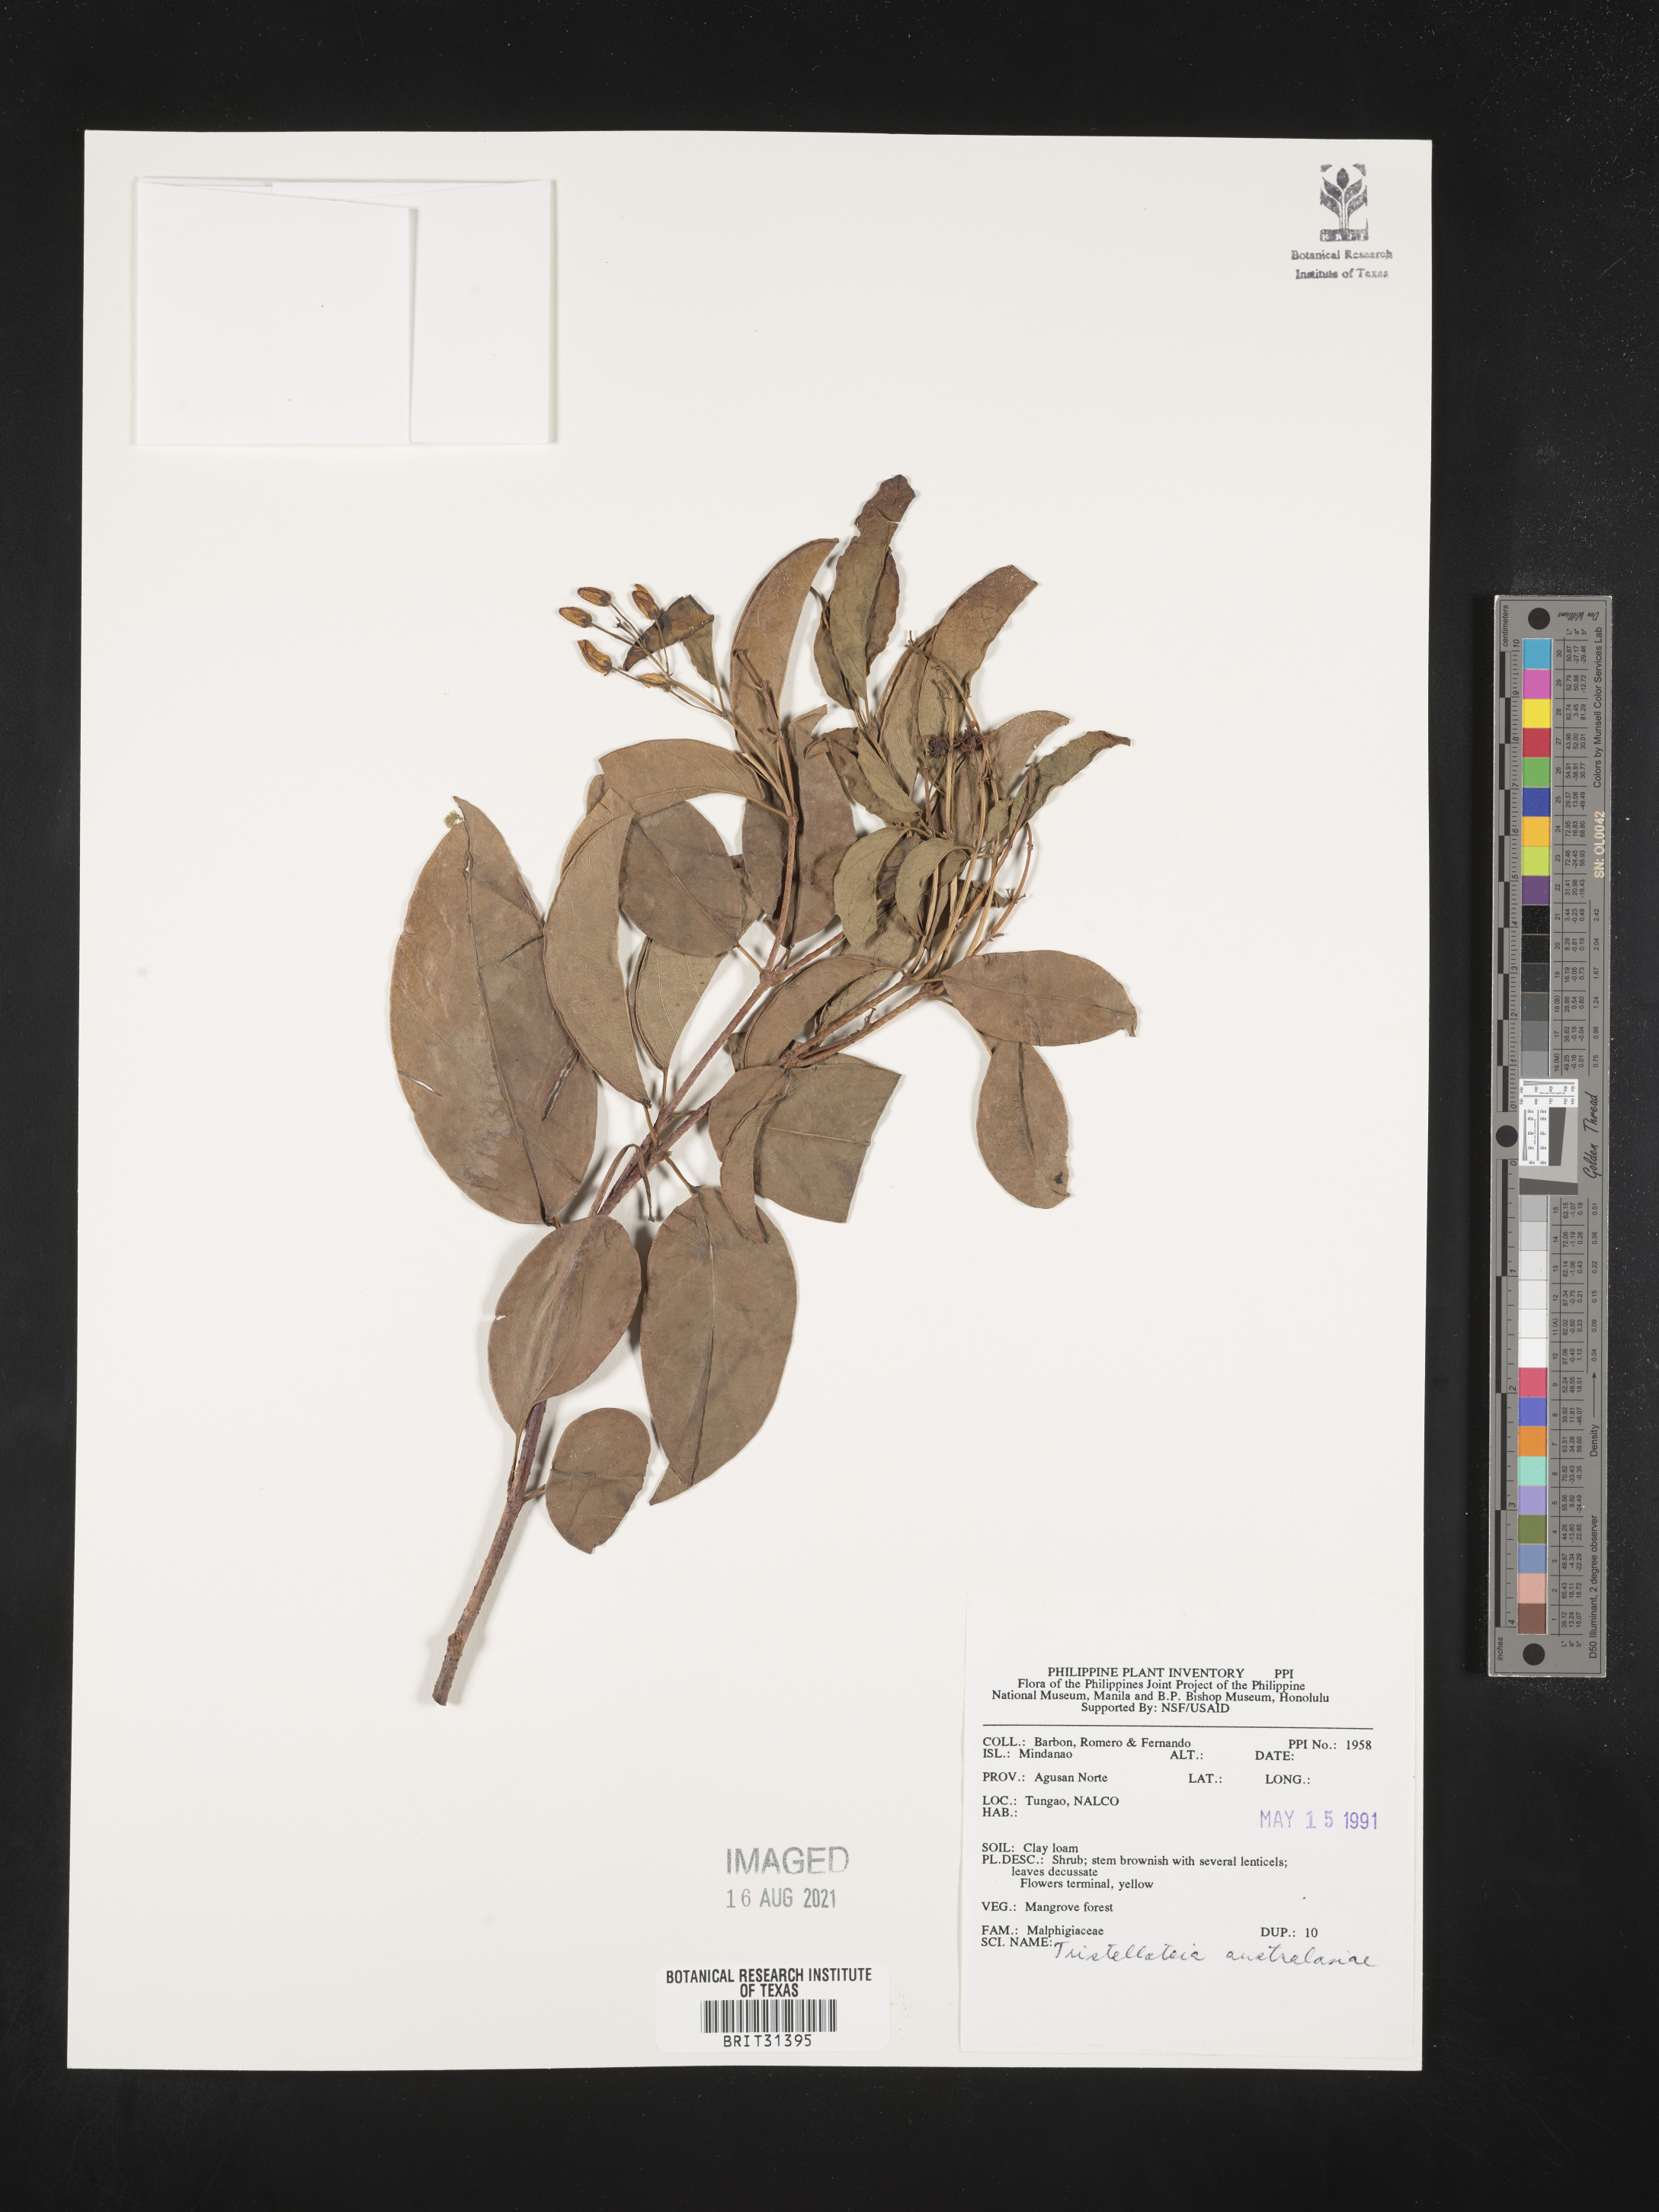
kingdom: Plantae
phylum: Tracheophyta
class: Magnoliopsida
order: Malpighiales
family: Malpighiaceae
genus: Tristellateia
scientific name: Tristellateia australasiae
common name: Australian goldvine
